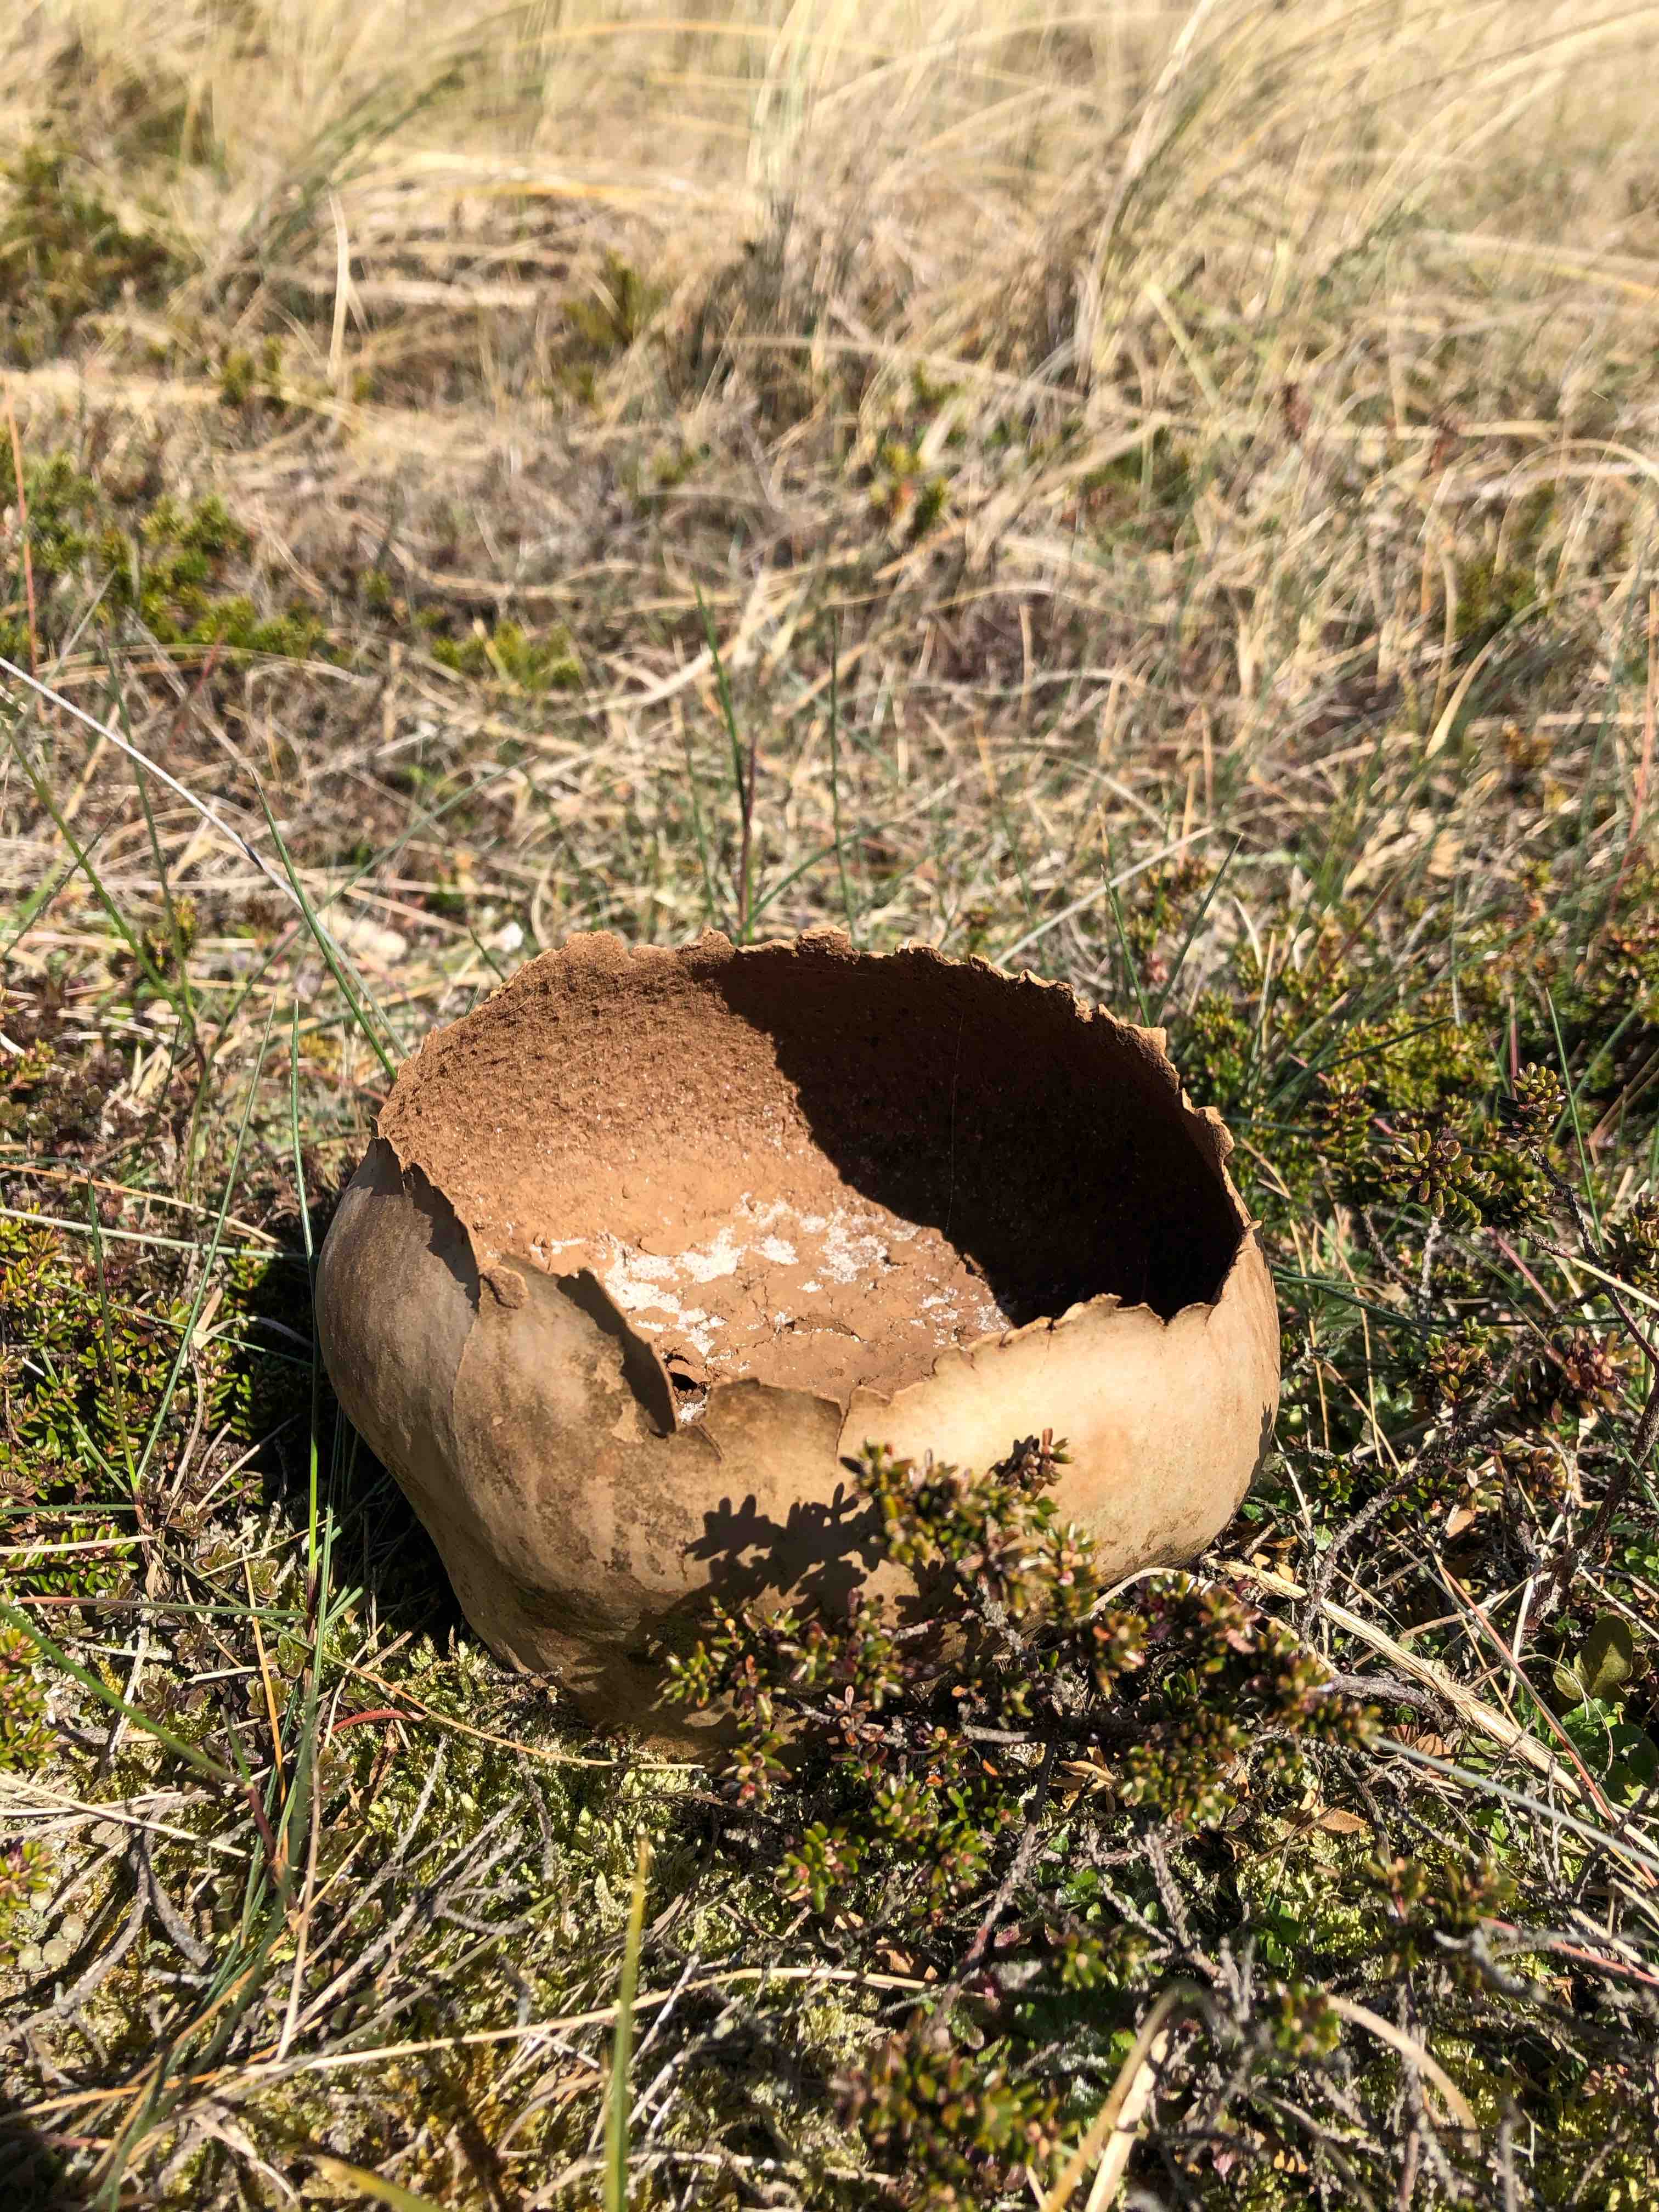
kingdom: Fungi
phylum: Basidiomycota
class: Agaricomycetes
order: Agaricales
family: Lycoperdaceae
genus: Bovistella
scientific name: Bovistella utriformis
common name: skællet støvbold
